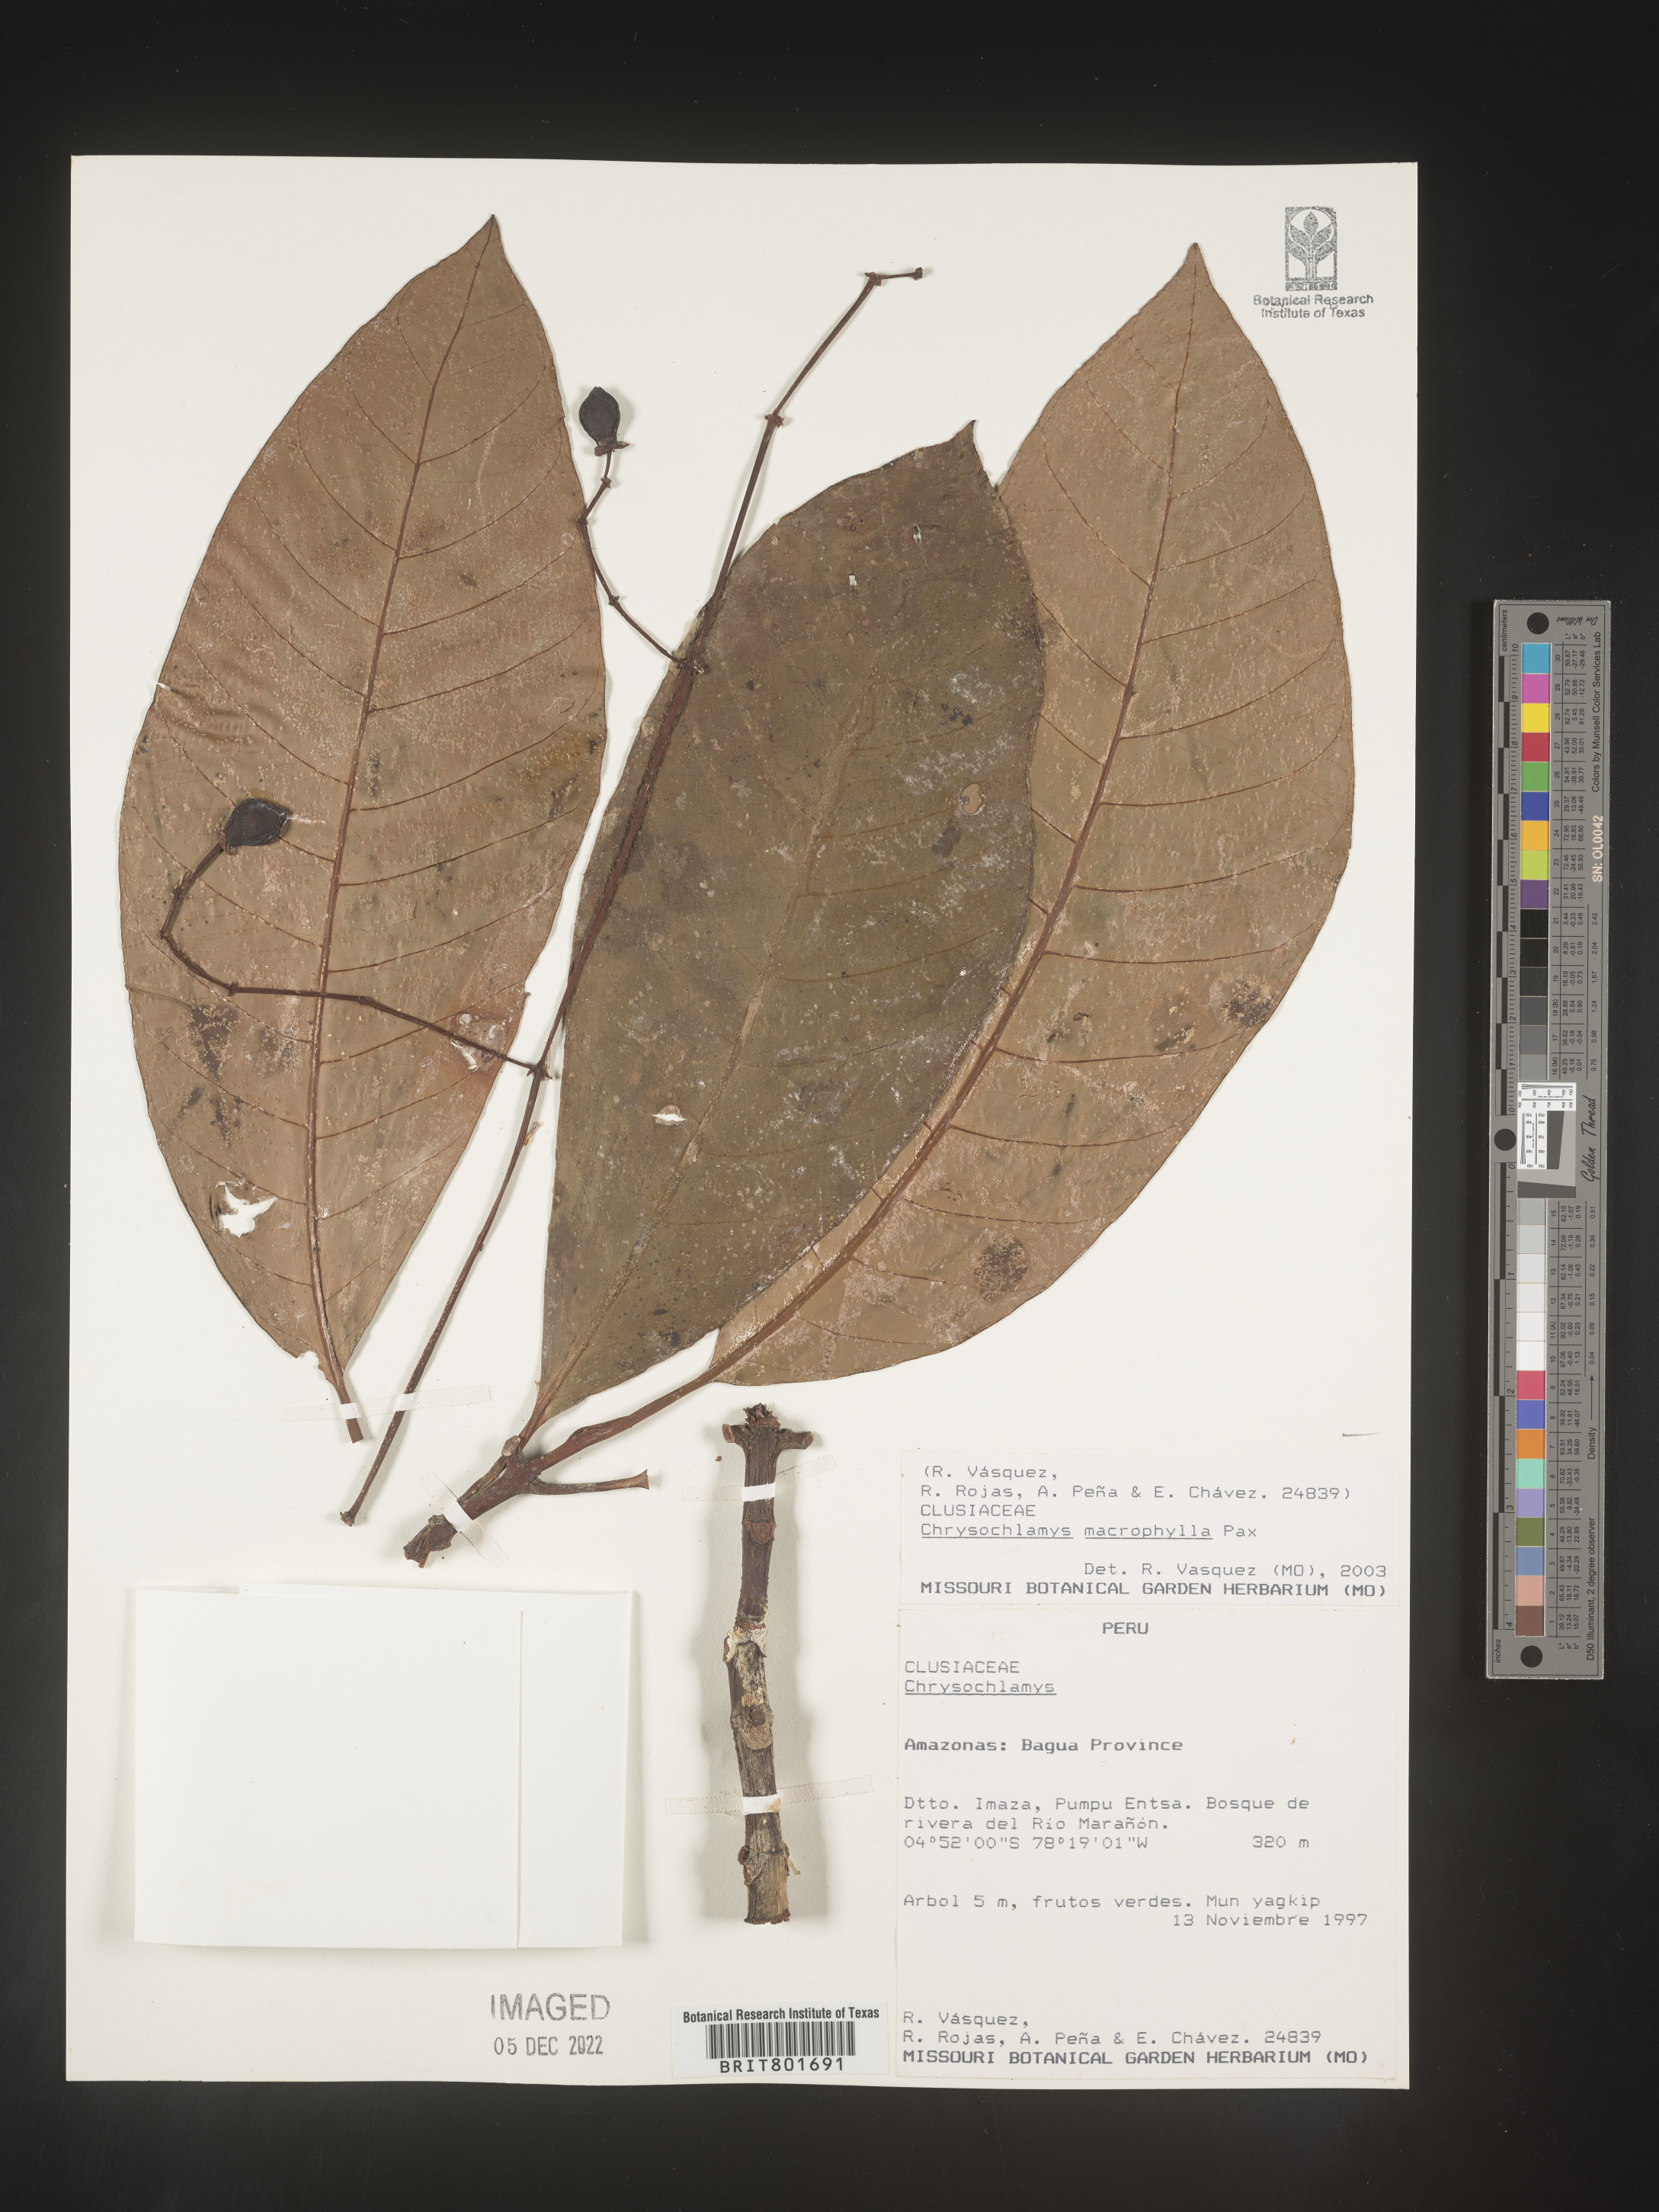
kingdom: Plantae
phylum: Tracheophyta
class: Magnoliopsida
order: Malpighiales
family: Clusiaceae
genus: Chrysochlamys
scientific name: Chrysochlamys
